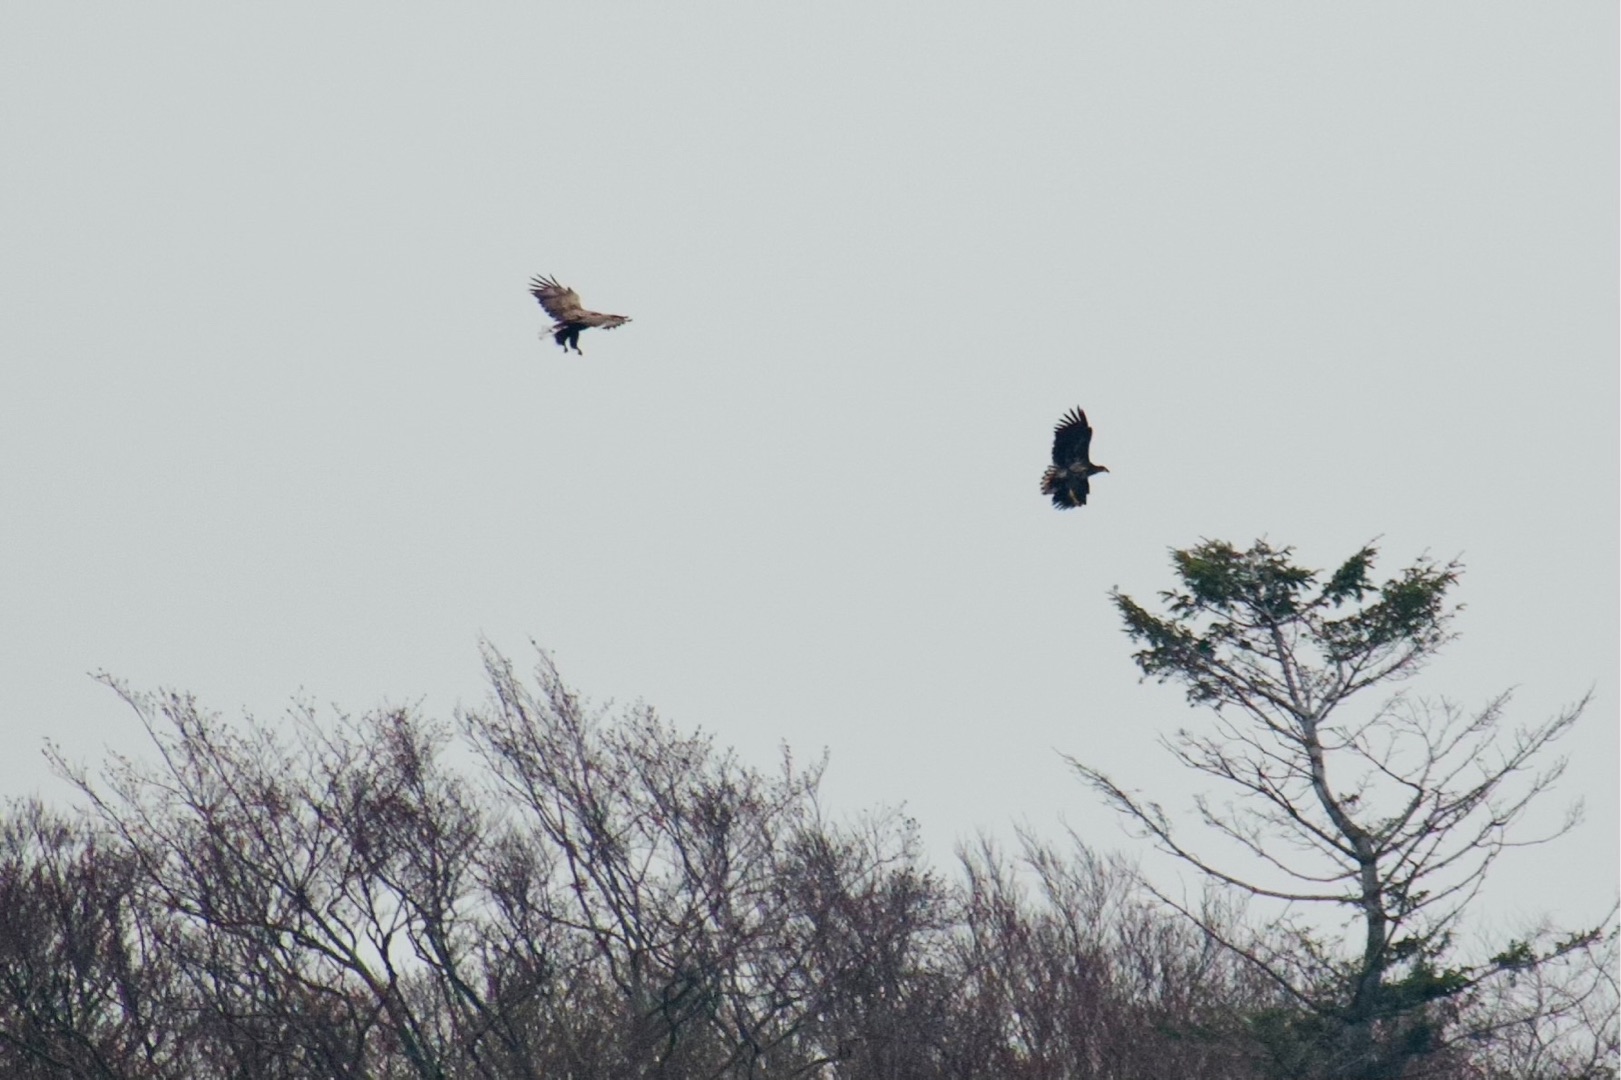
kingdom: Animalia
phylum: Chordata
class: Aves
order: Accipitriformes
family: Accipitridae
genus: Haliaeetus
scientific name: Haliaeetus albicilla
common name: Havørn
